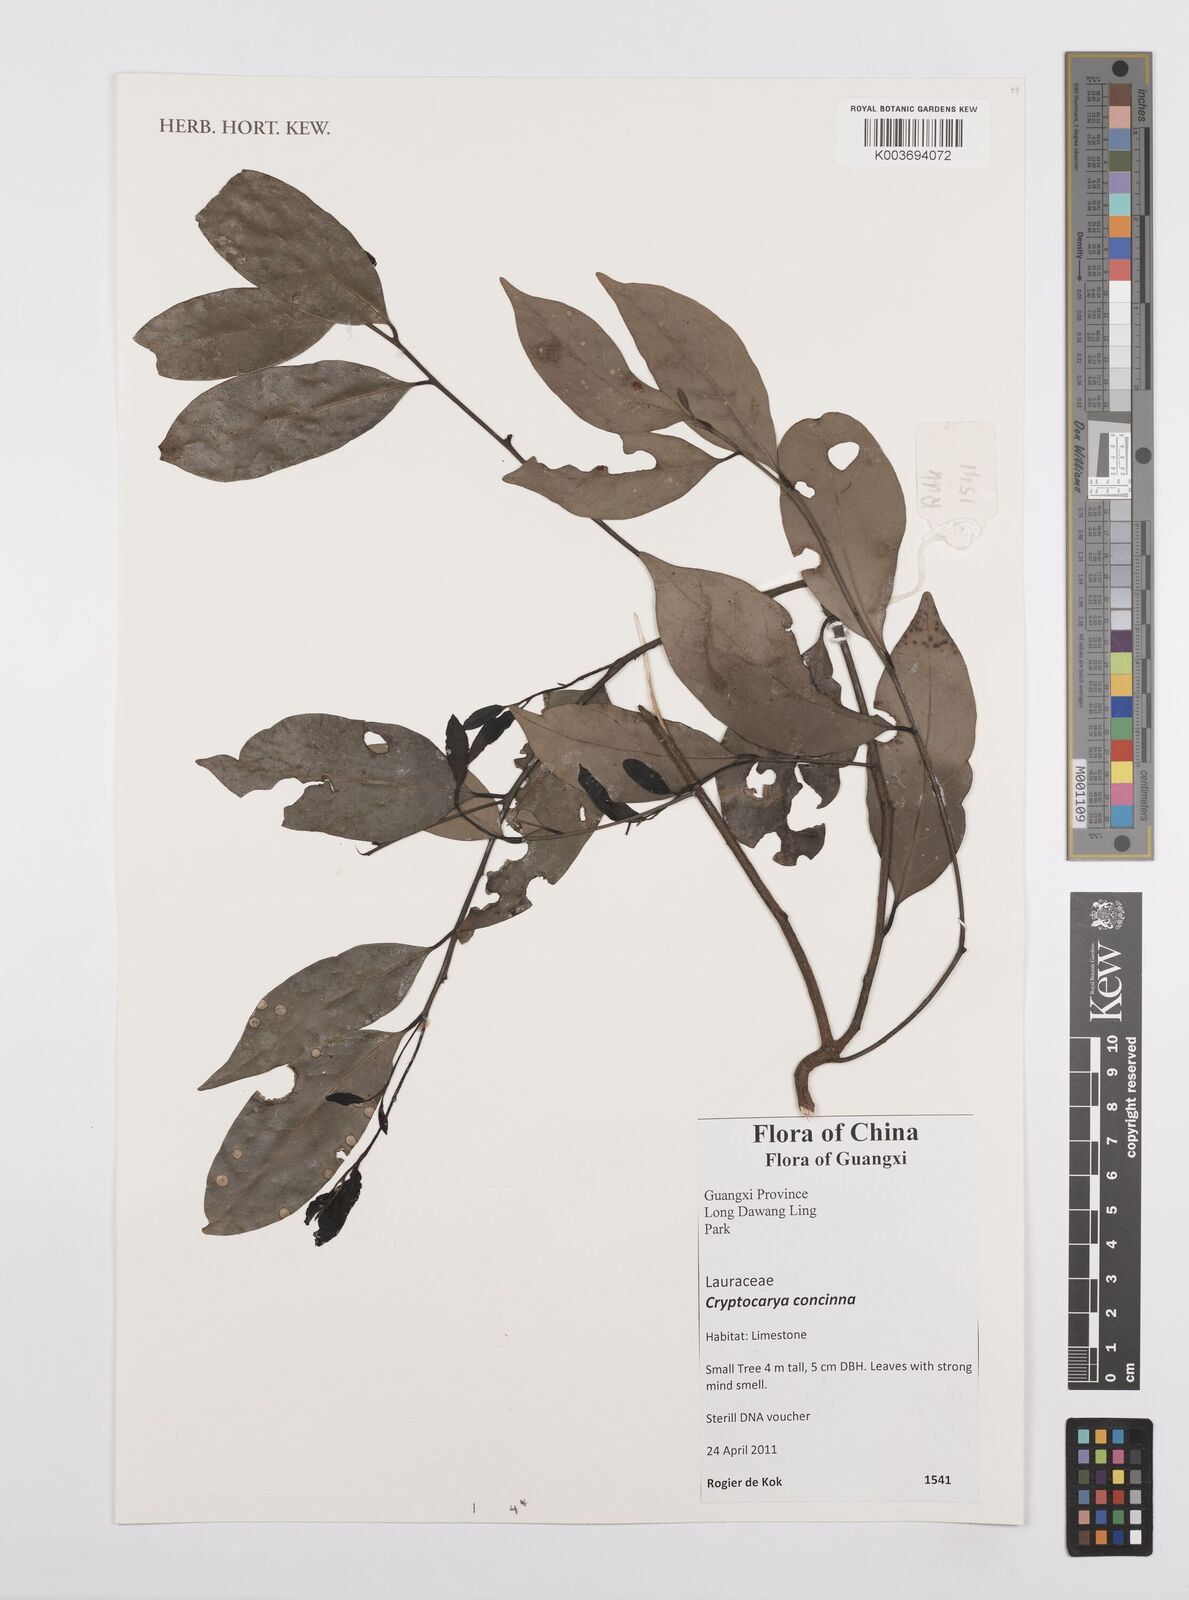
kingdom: Plantae
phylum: Tracheophyta
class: Magnoliopsida
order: Laurales
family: Lauraceae
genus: Cryptocarya
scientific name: Cryptocarya concinna
